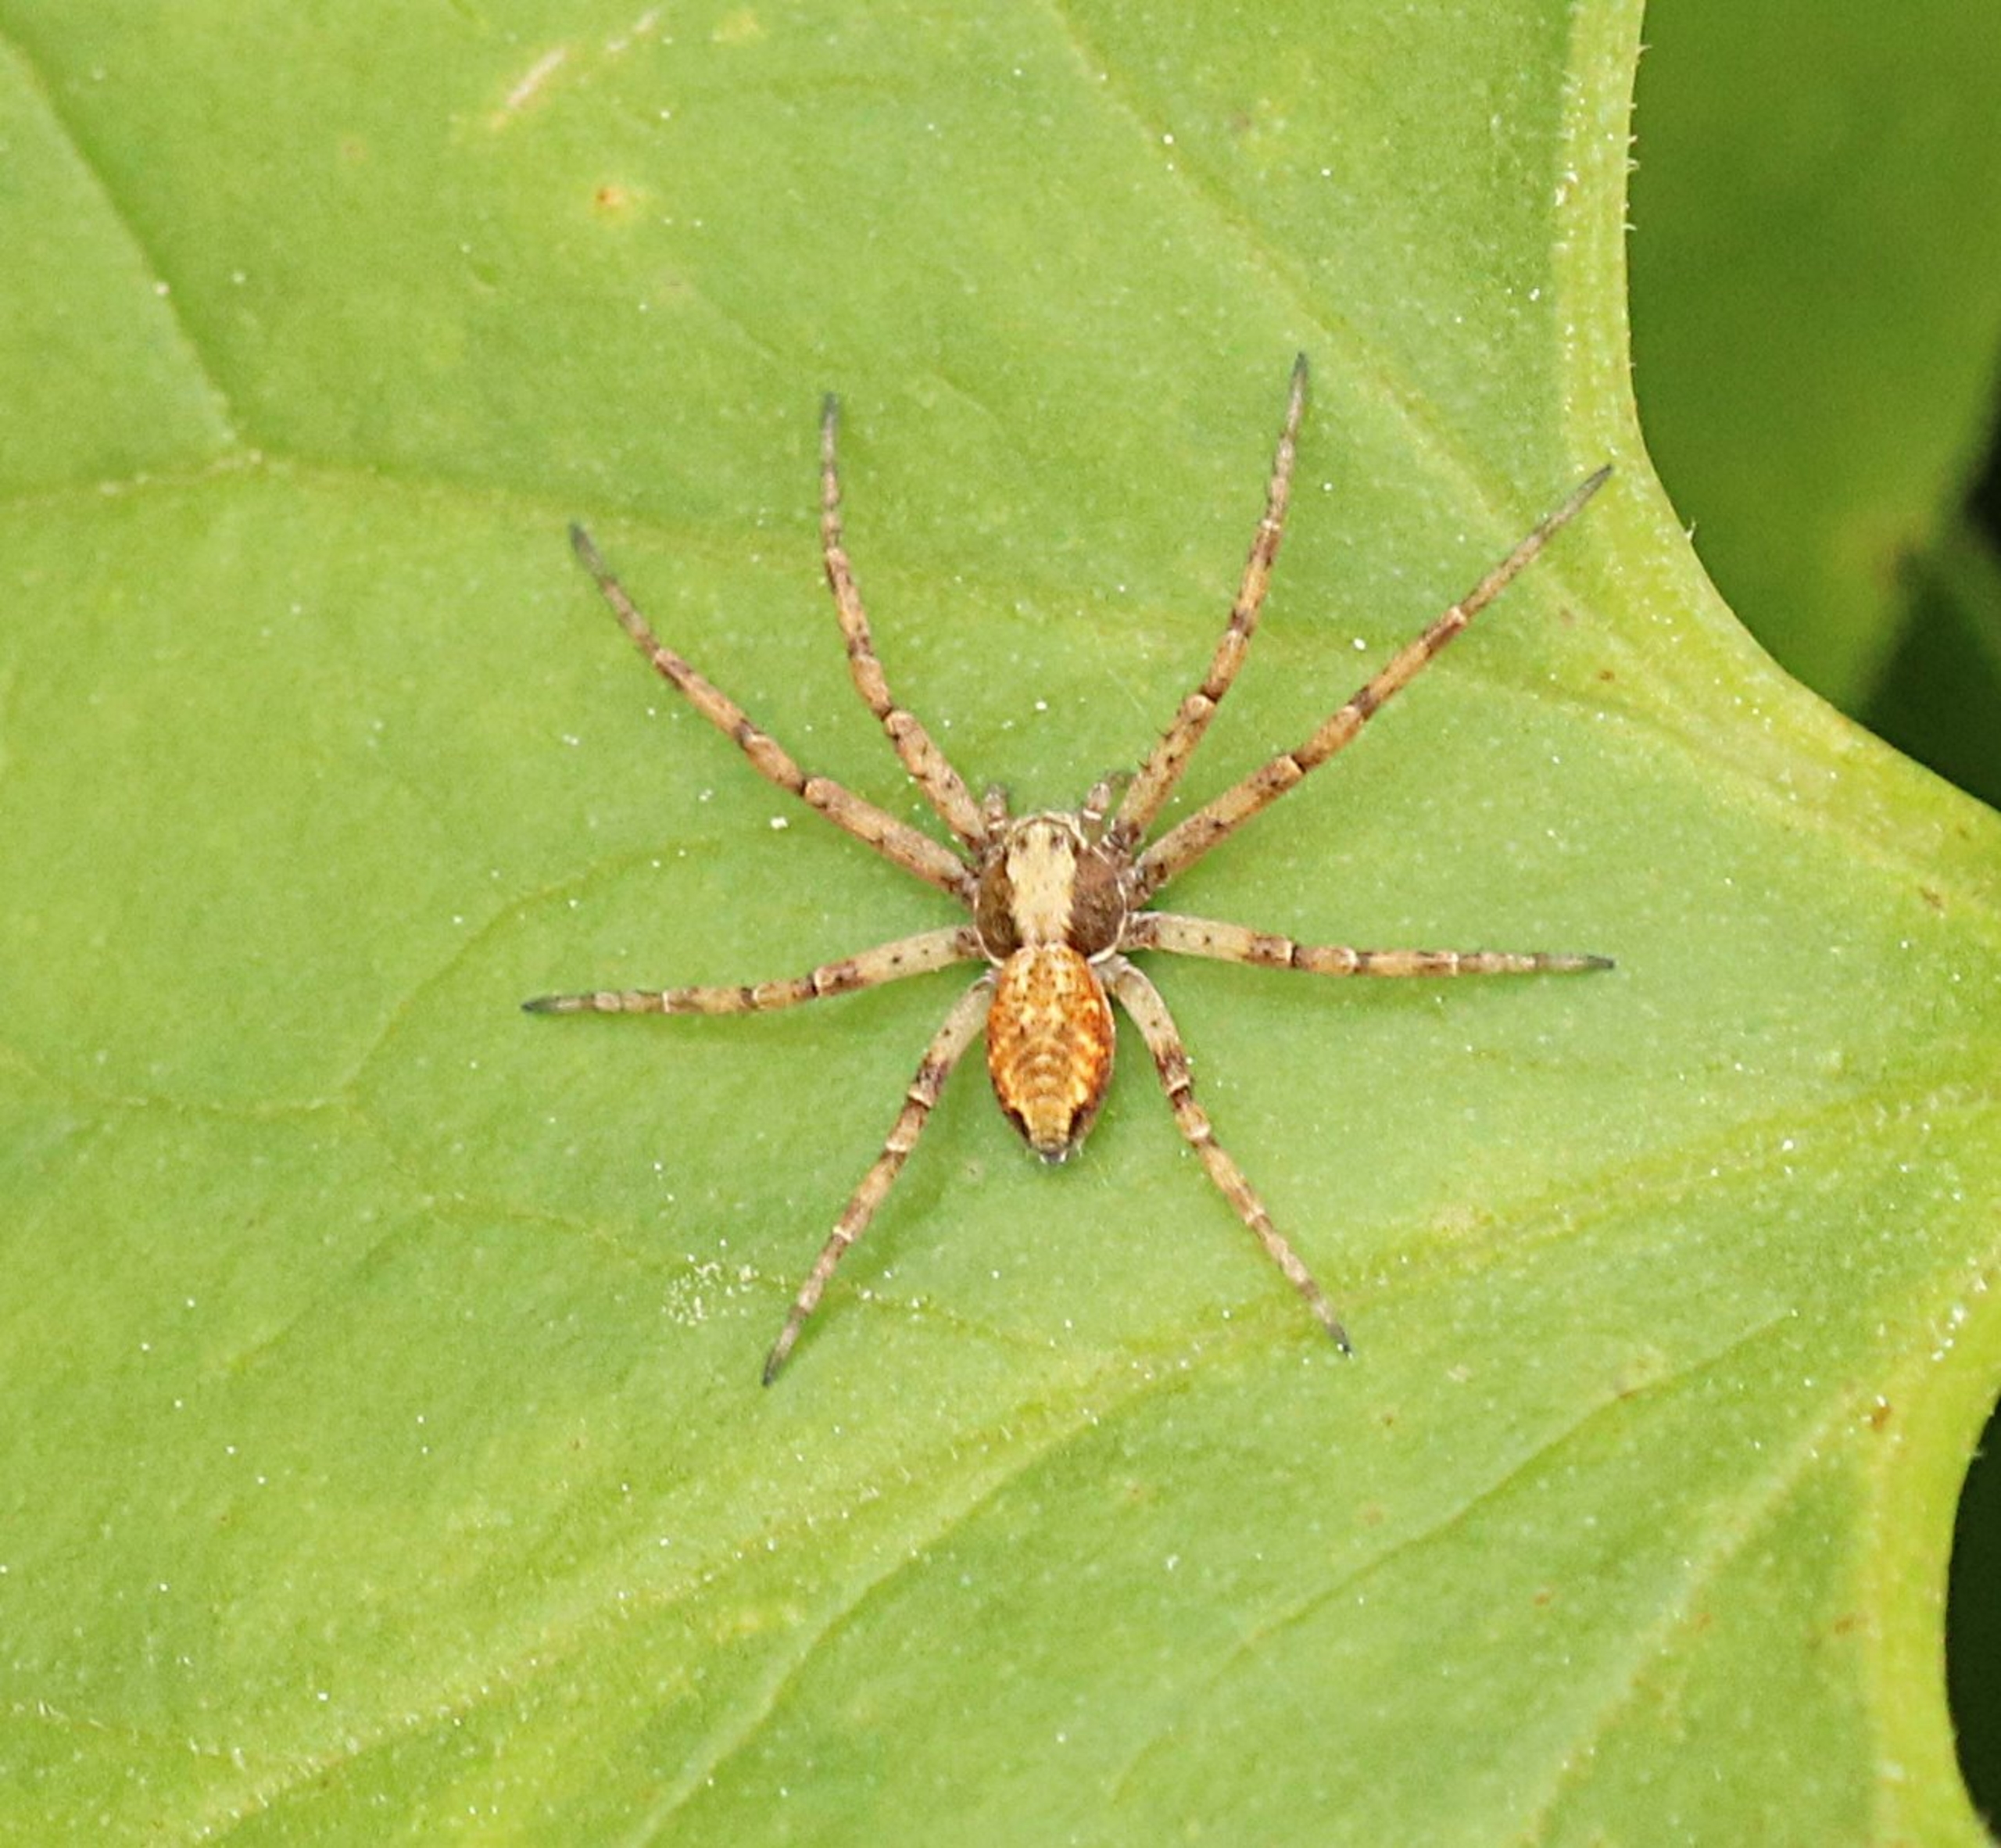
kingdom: Animalia
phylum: Arthropoda
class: Arachnida
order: Araneae
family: Philodromidae
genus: Philodromus
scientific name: Philodromus
